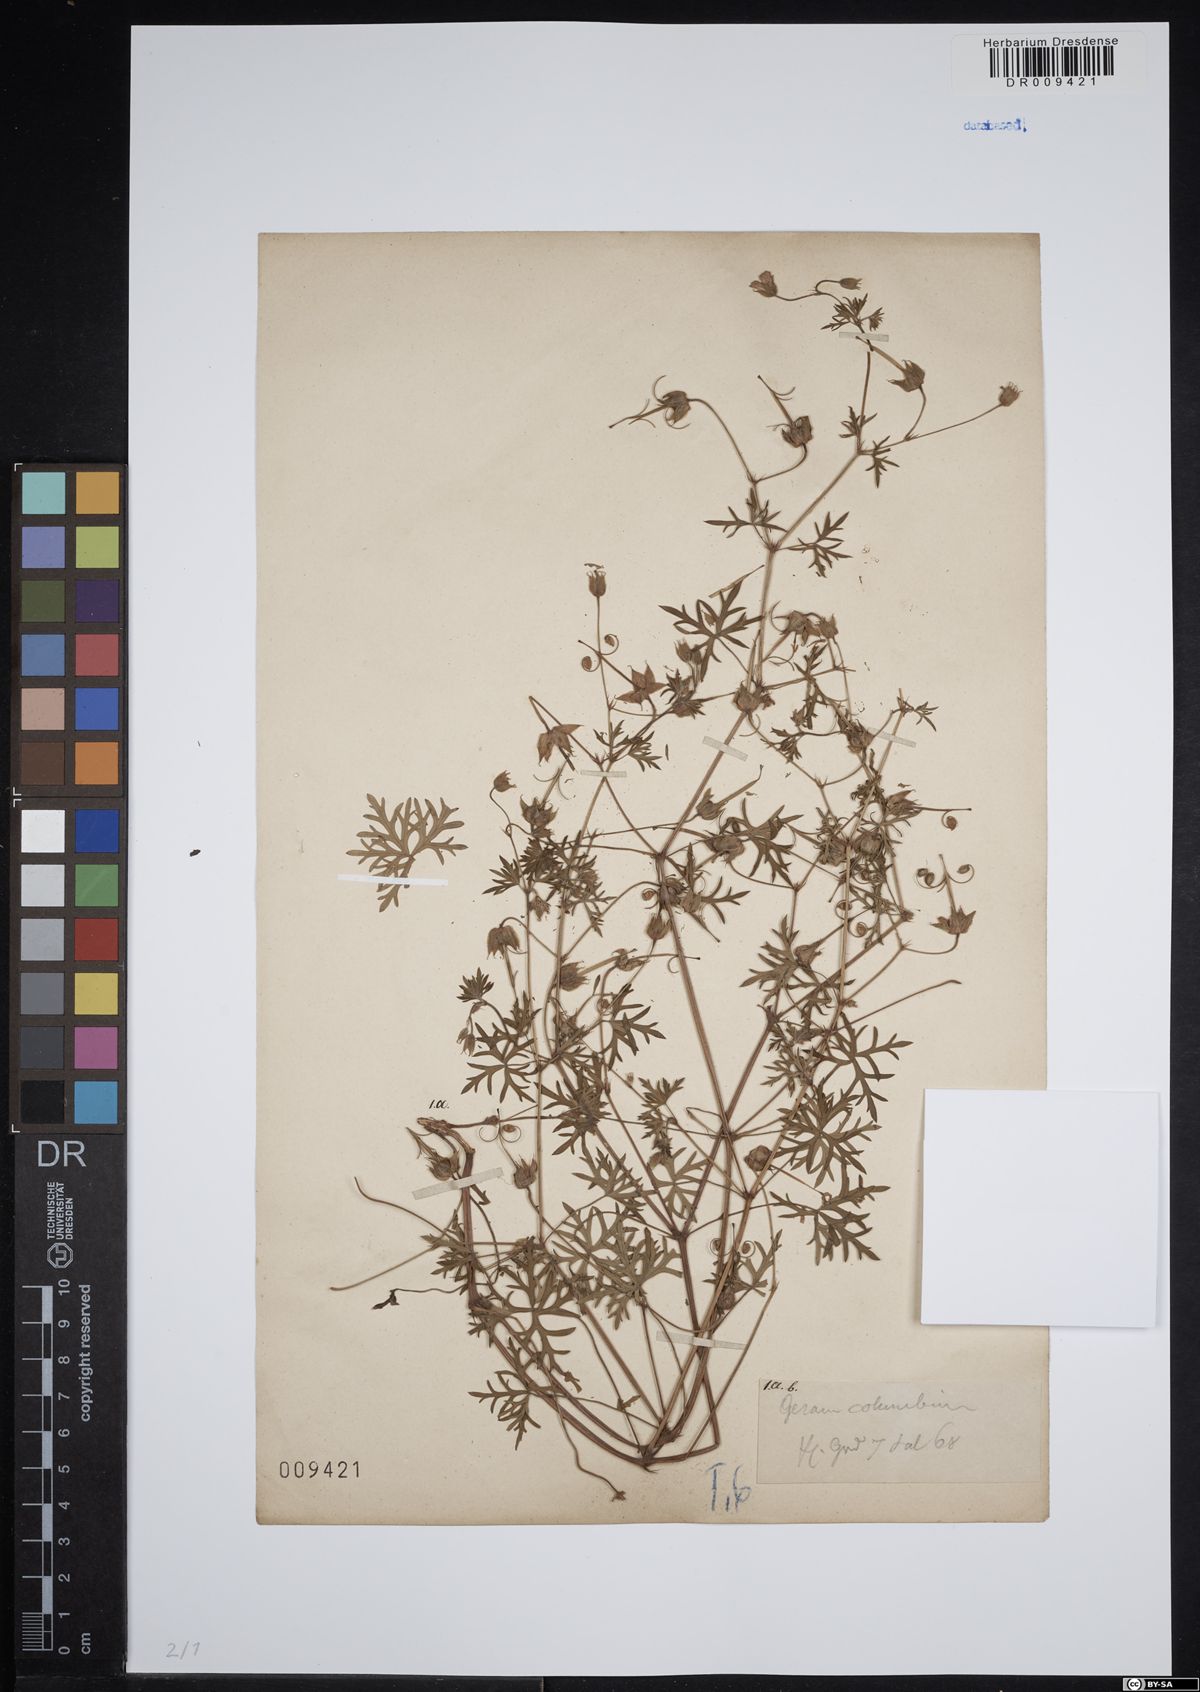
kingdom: Plantae
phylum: Tracheophyta
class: Magnoliopsida
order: Geraniales
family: Geraniaceae
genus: Geranium
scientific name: Geranium columbinum
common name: Long-stalked crane's-bill
